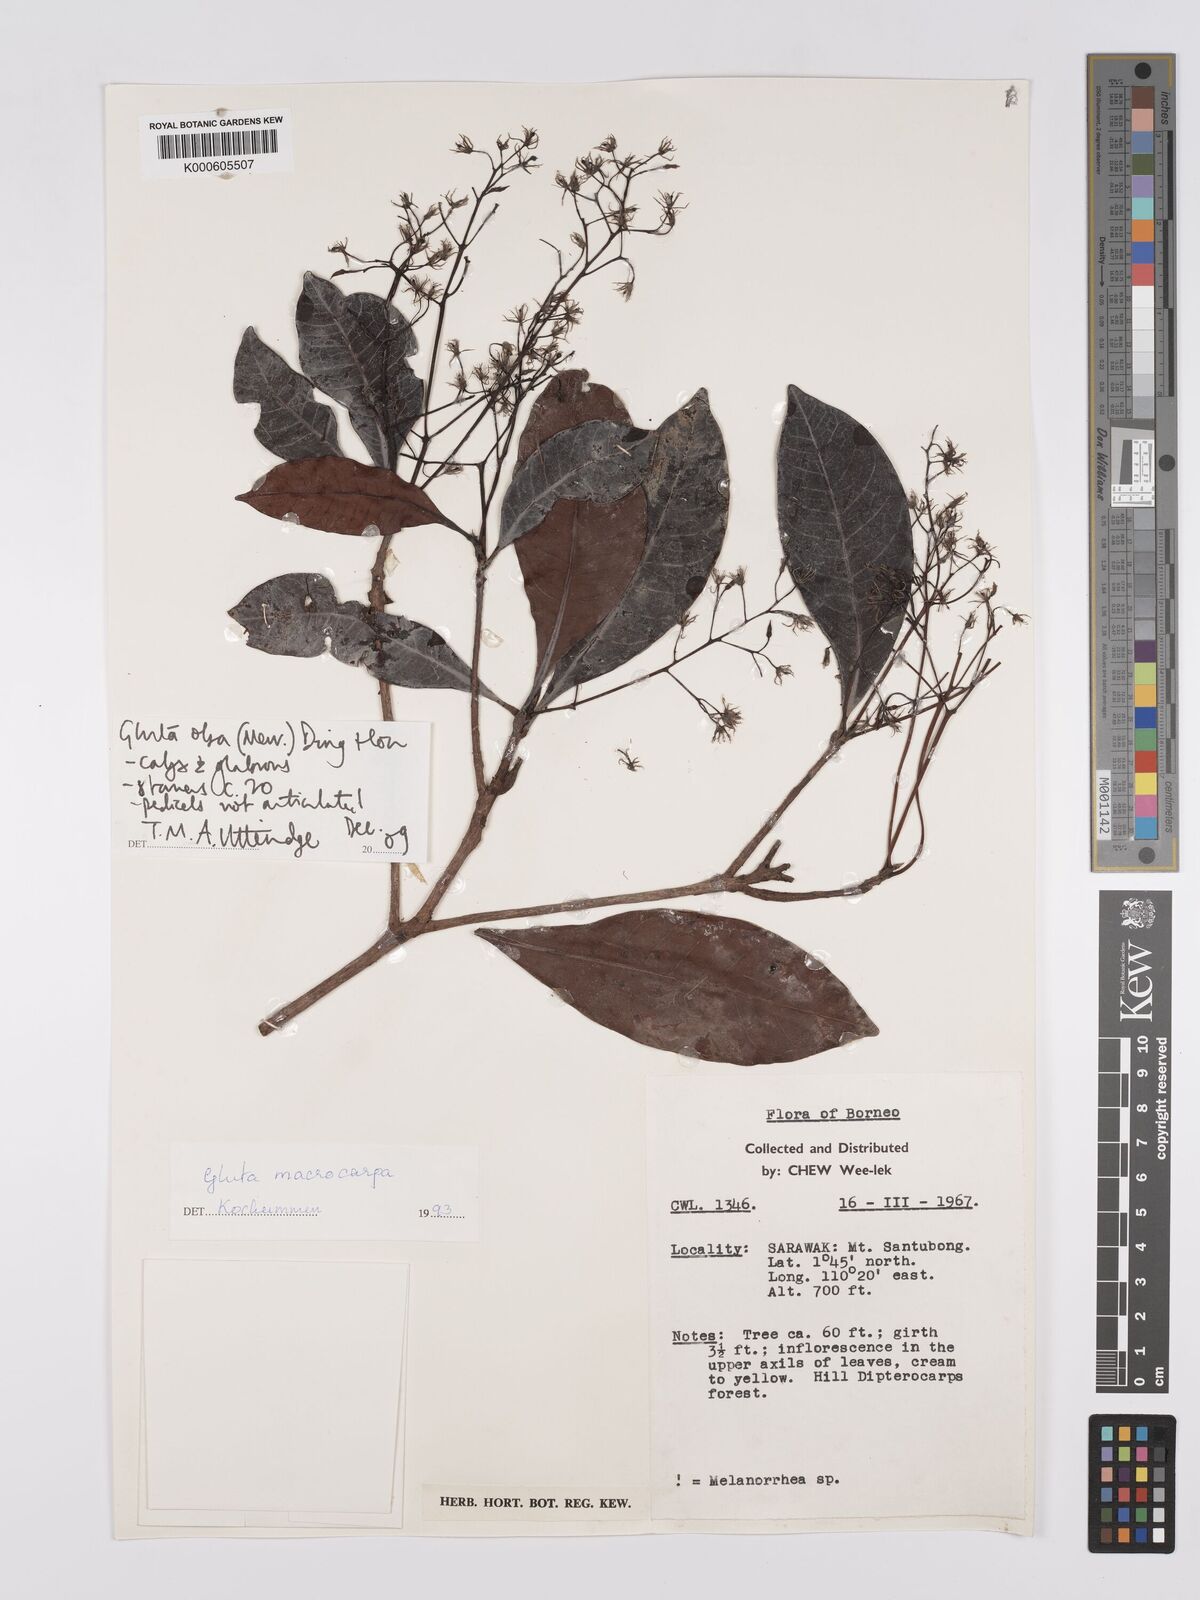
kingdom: Plantae
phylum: Tracheophyta
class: Magnoliopsida
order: Sapindales
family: Anacardiaceae
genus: Gluta
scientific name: Gluta aptera
